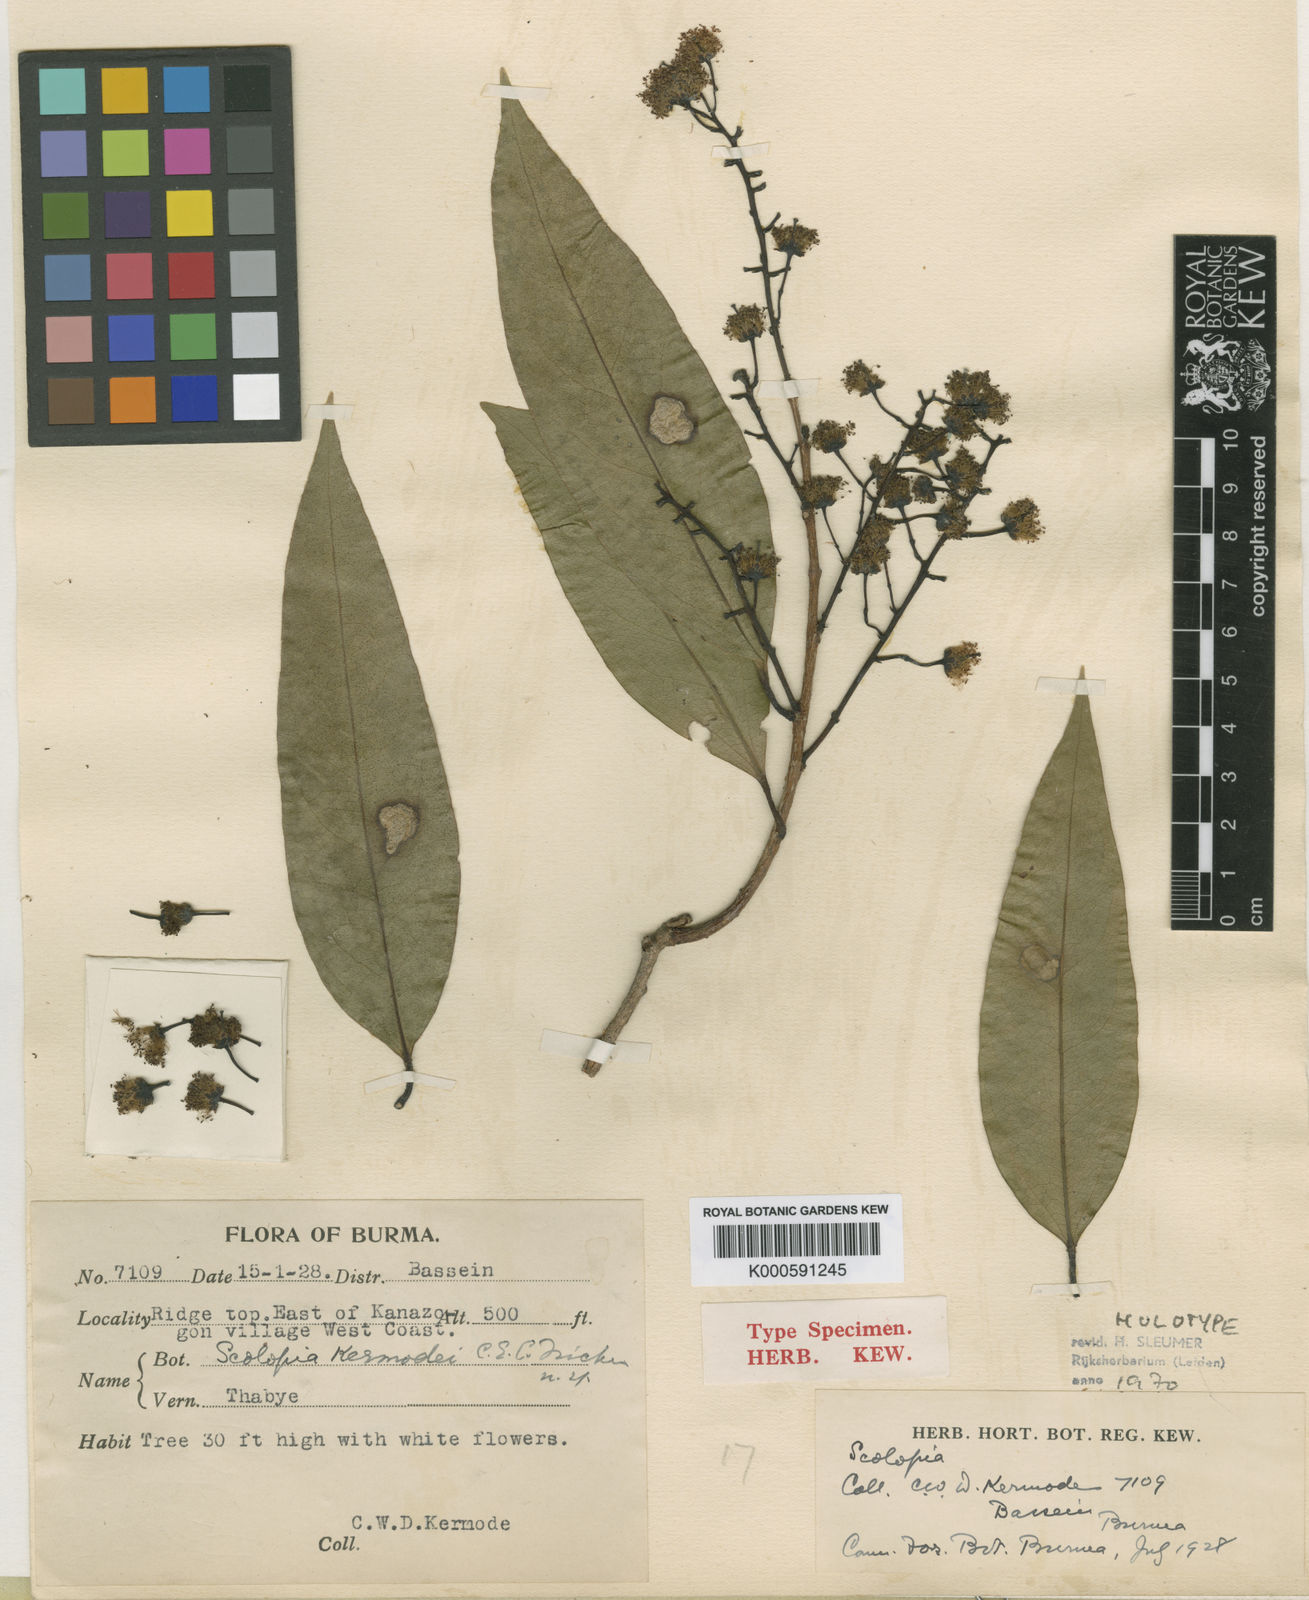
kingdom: Plantae
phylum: Tracheophyta
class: Magnoliopsida
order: Malpighiales
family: Salicaceae
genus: Scolopia
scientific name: Scolopia kermodei
